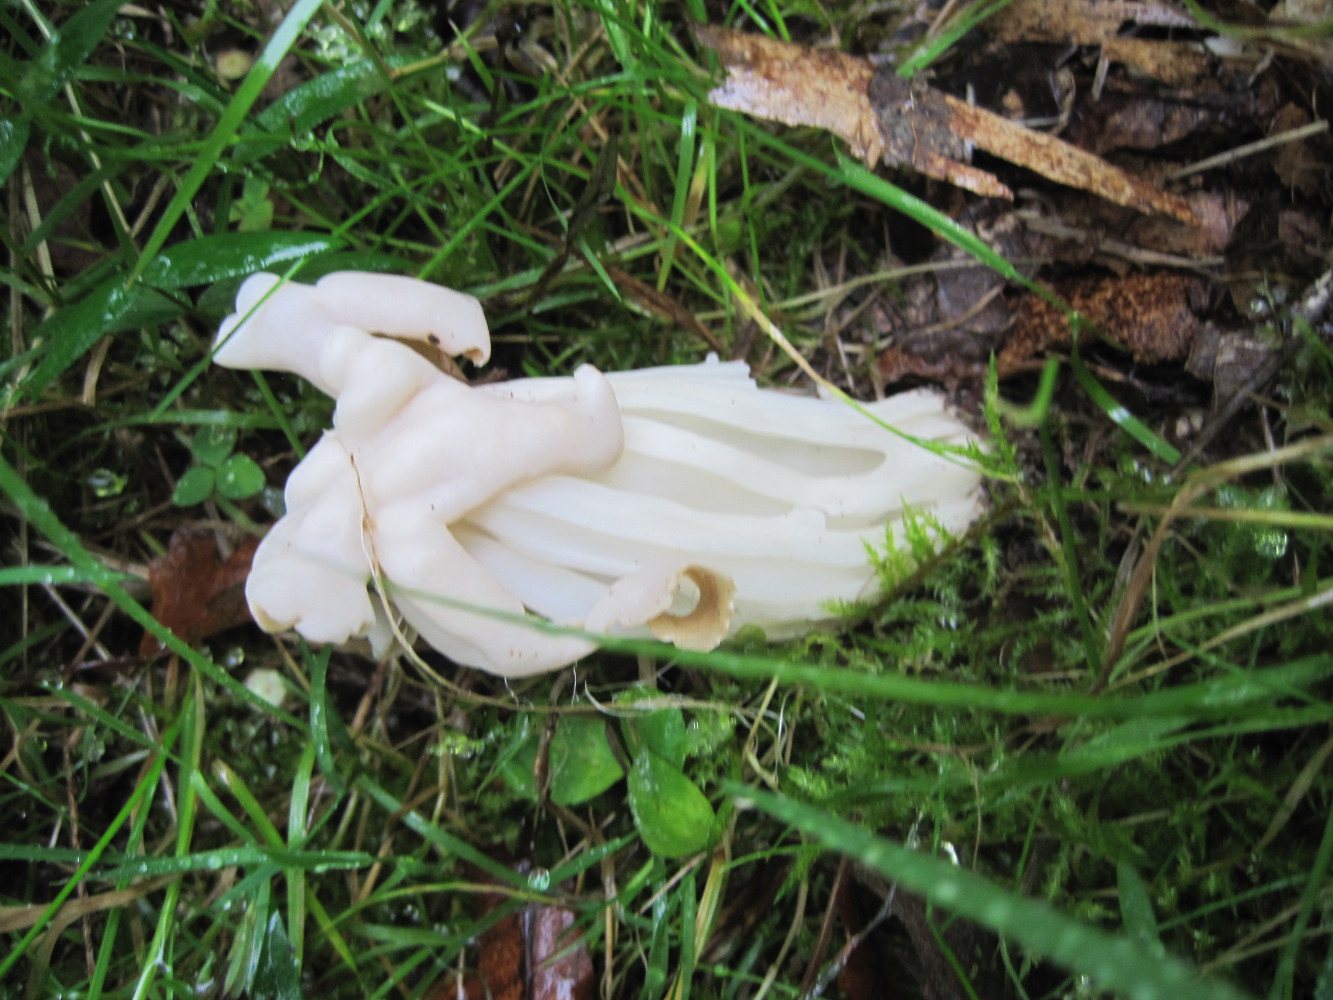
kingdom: Fungi
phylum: Ascomycota
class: Pezizomycetes
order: Pezizales
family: Helvellaceae
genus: Helvella
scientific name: Helvella crispa
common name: kruset foldhat
